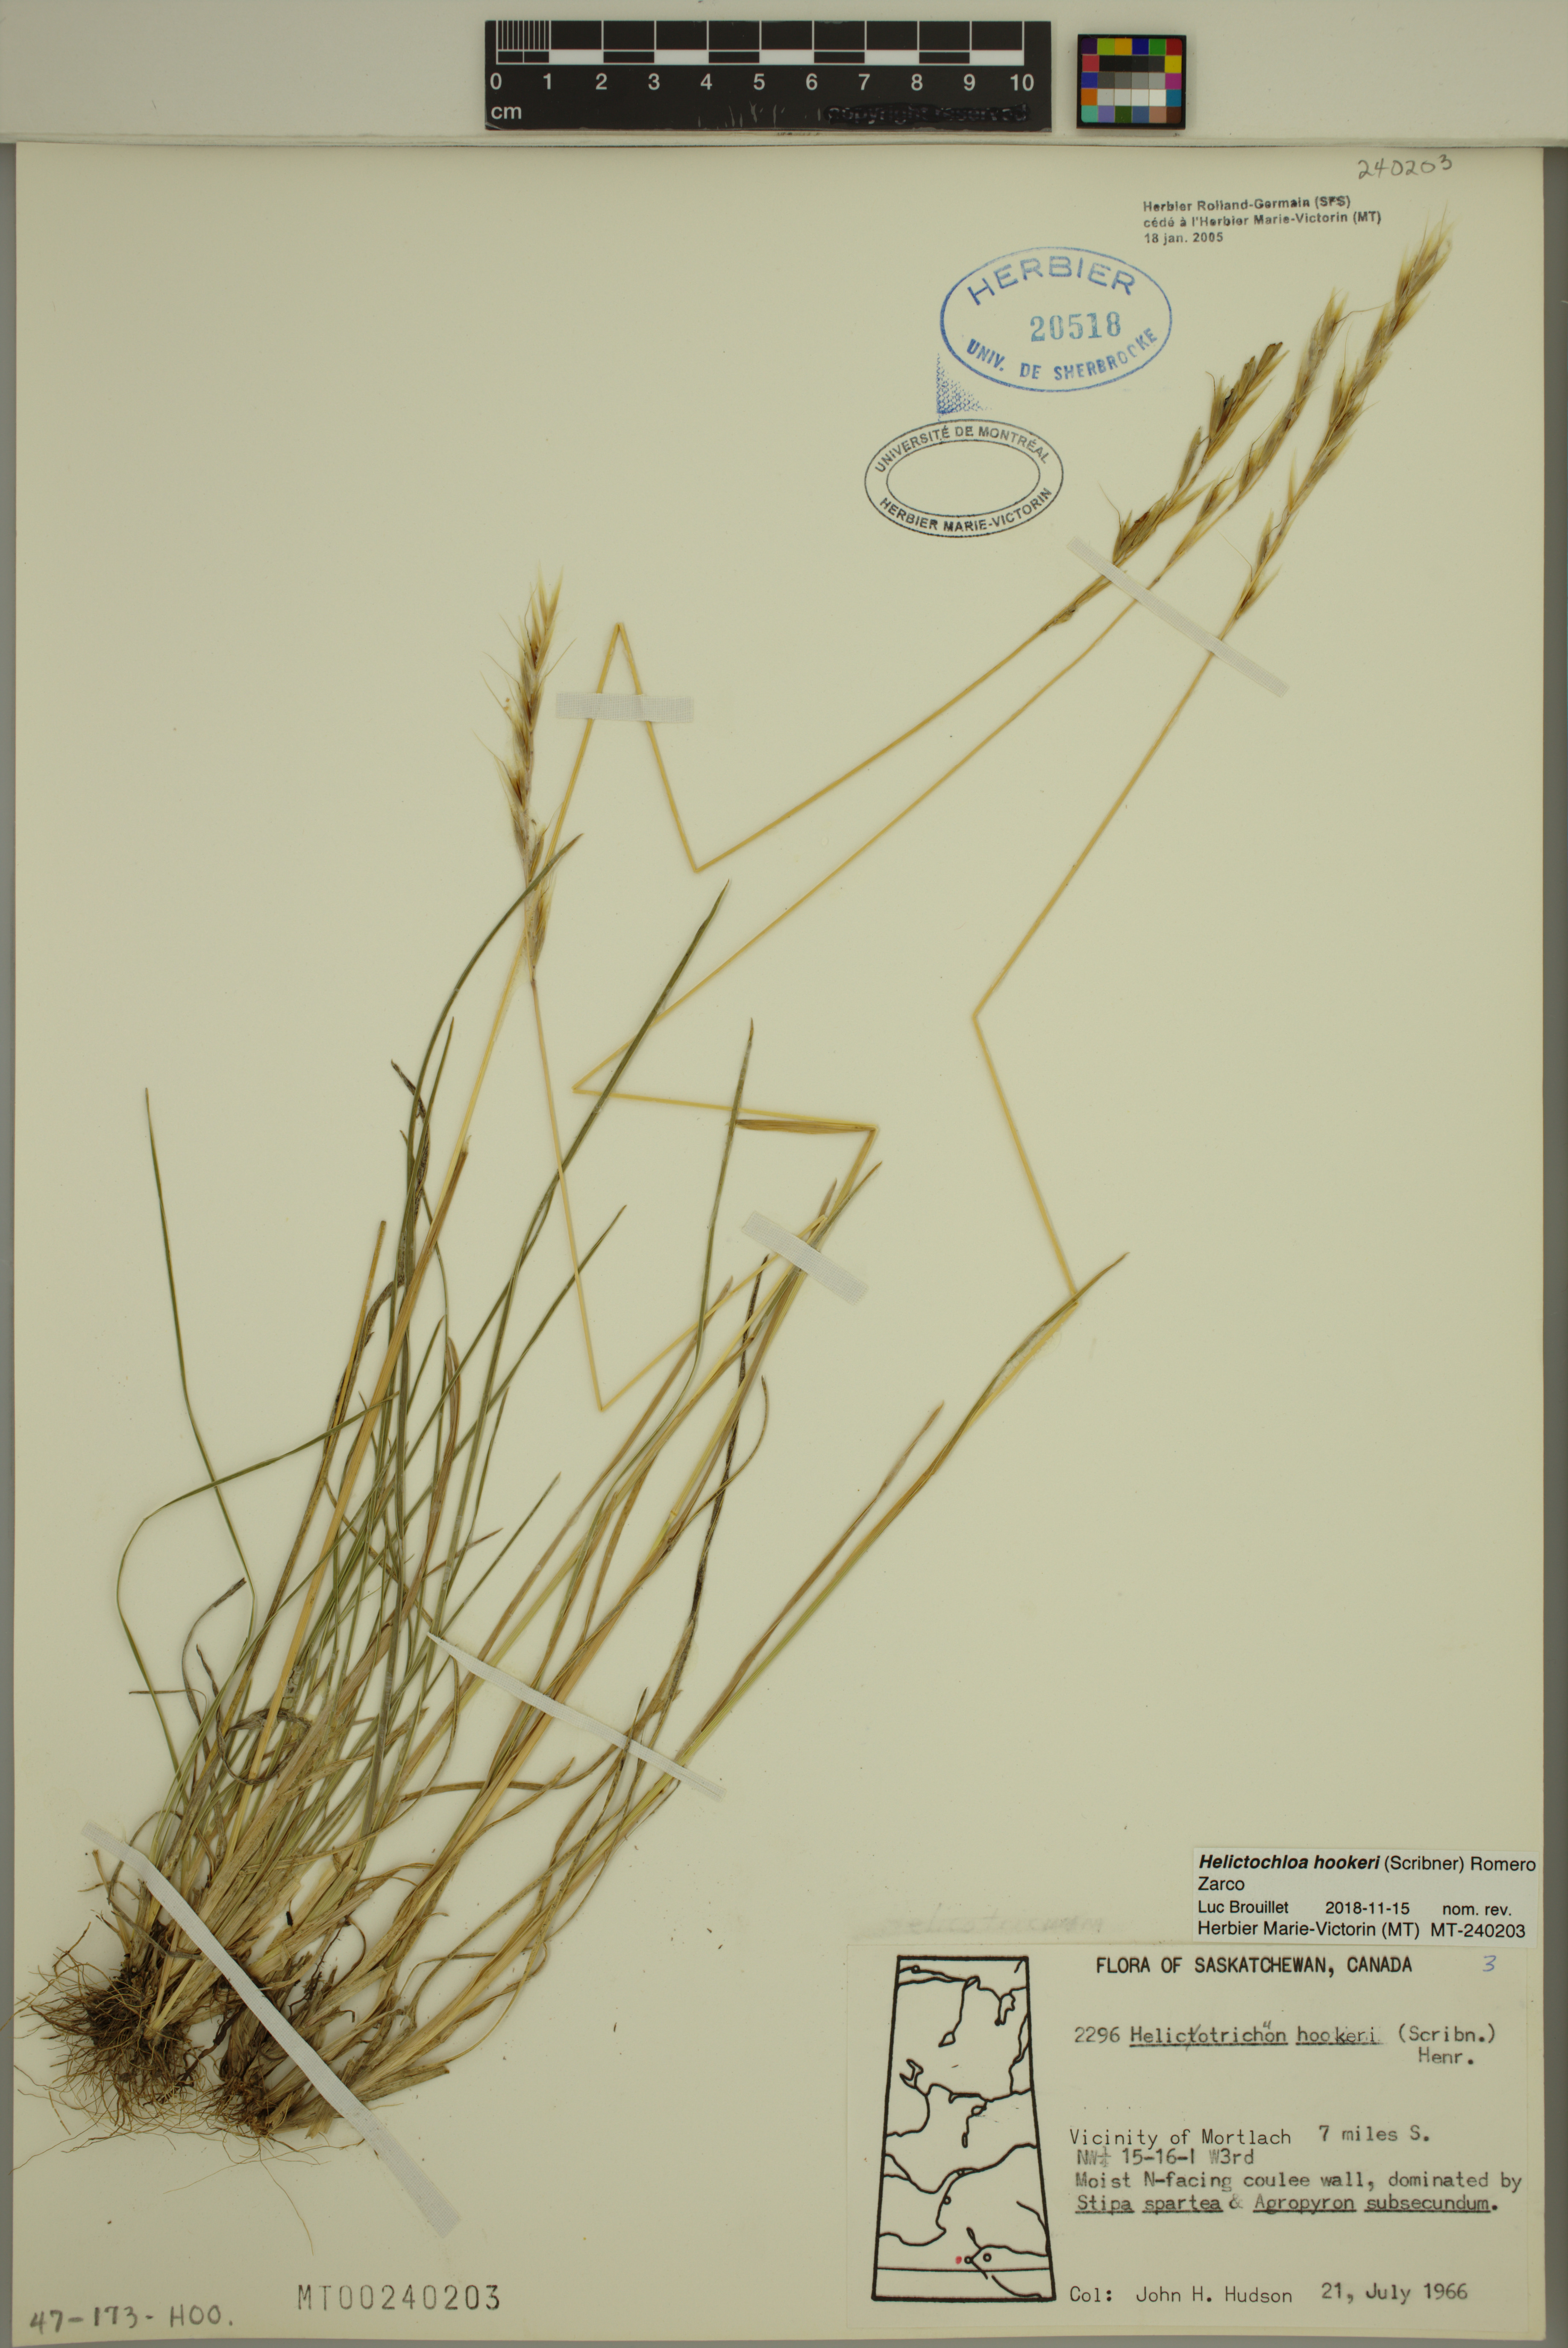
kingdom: Plantae
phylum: Tracheophyta
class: Liliopsida
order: Poales
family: Poaceae
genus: Helictochloa
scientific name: Helictochloa hookeri
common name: Hooker's alpine oatgrass
